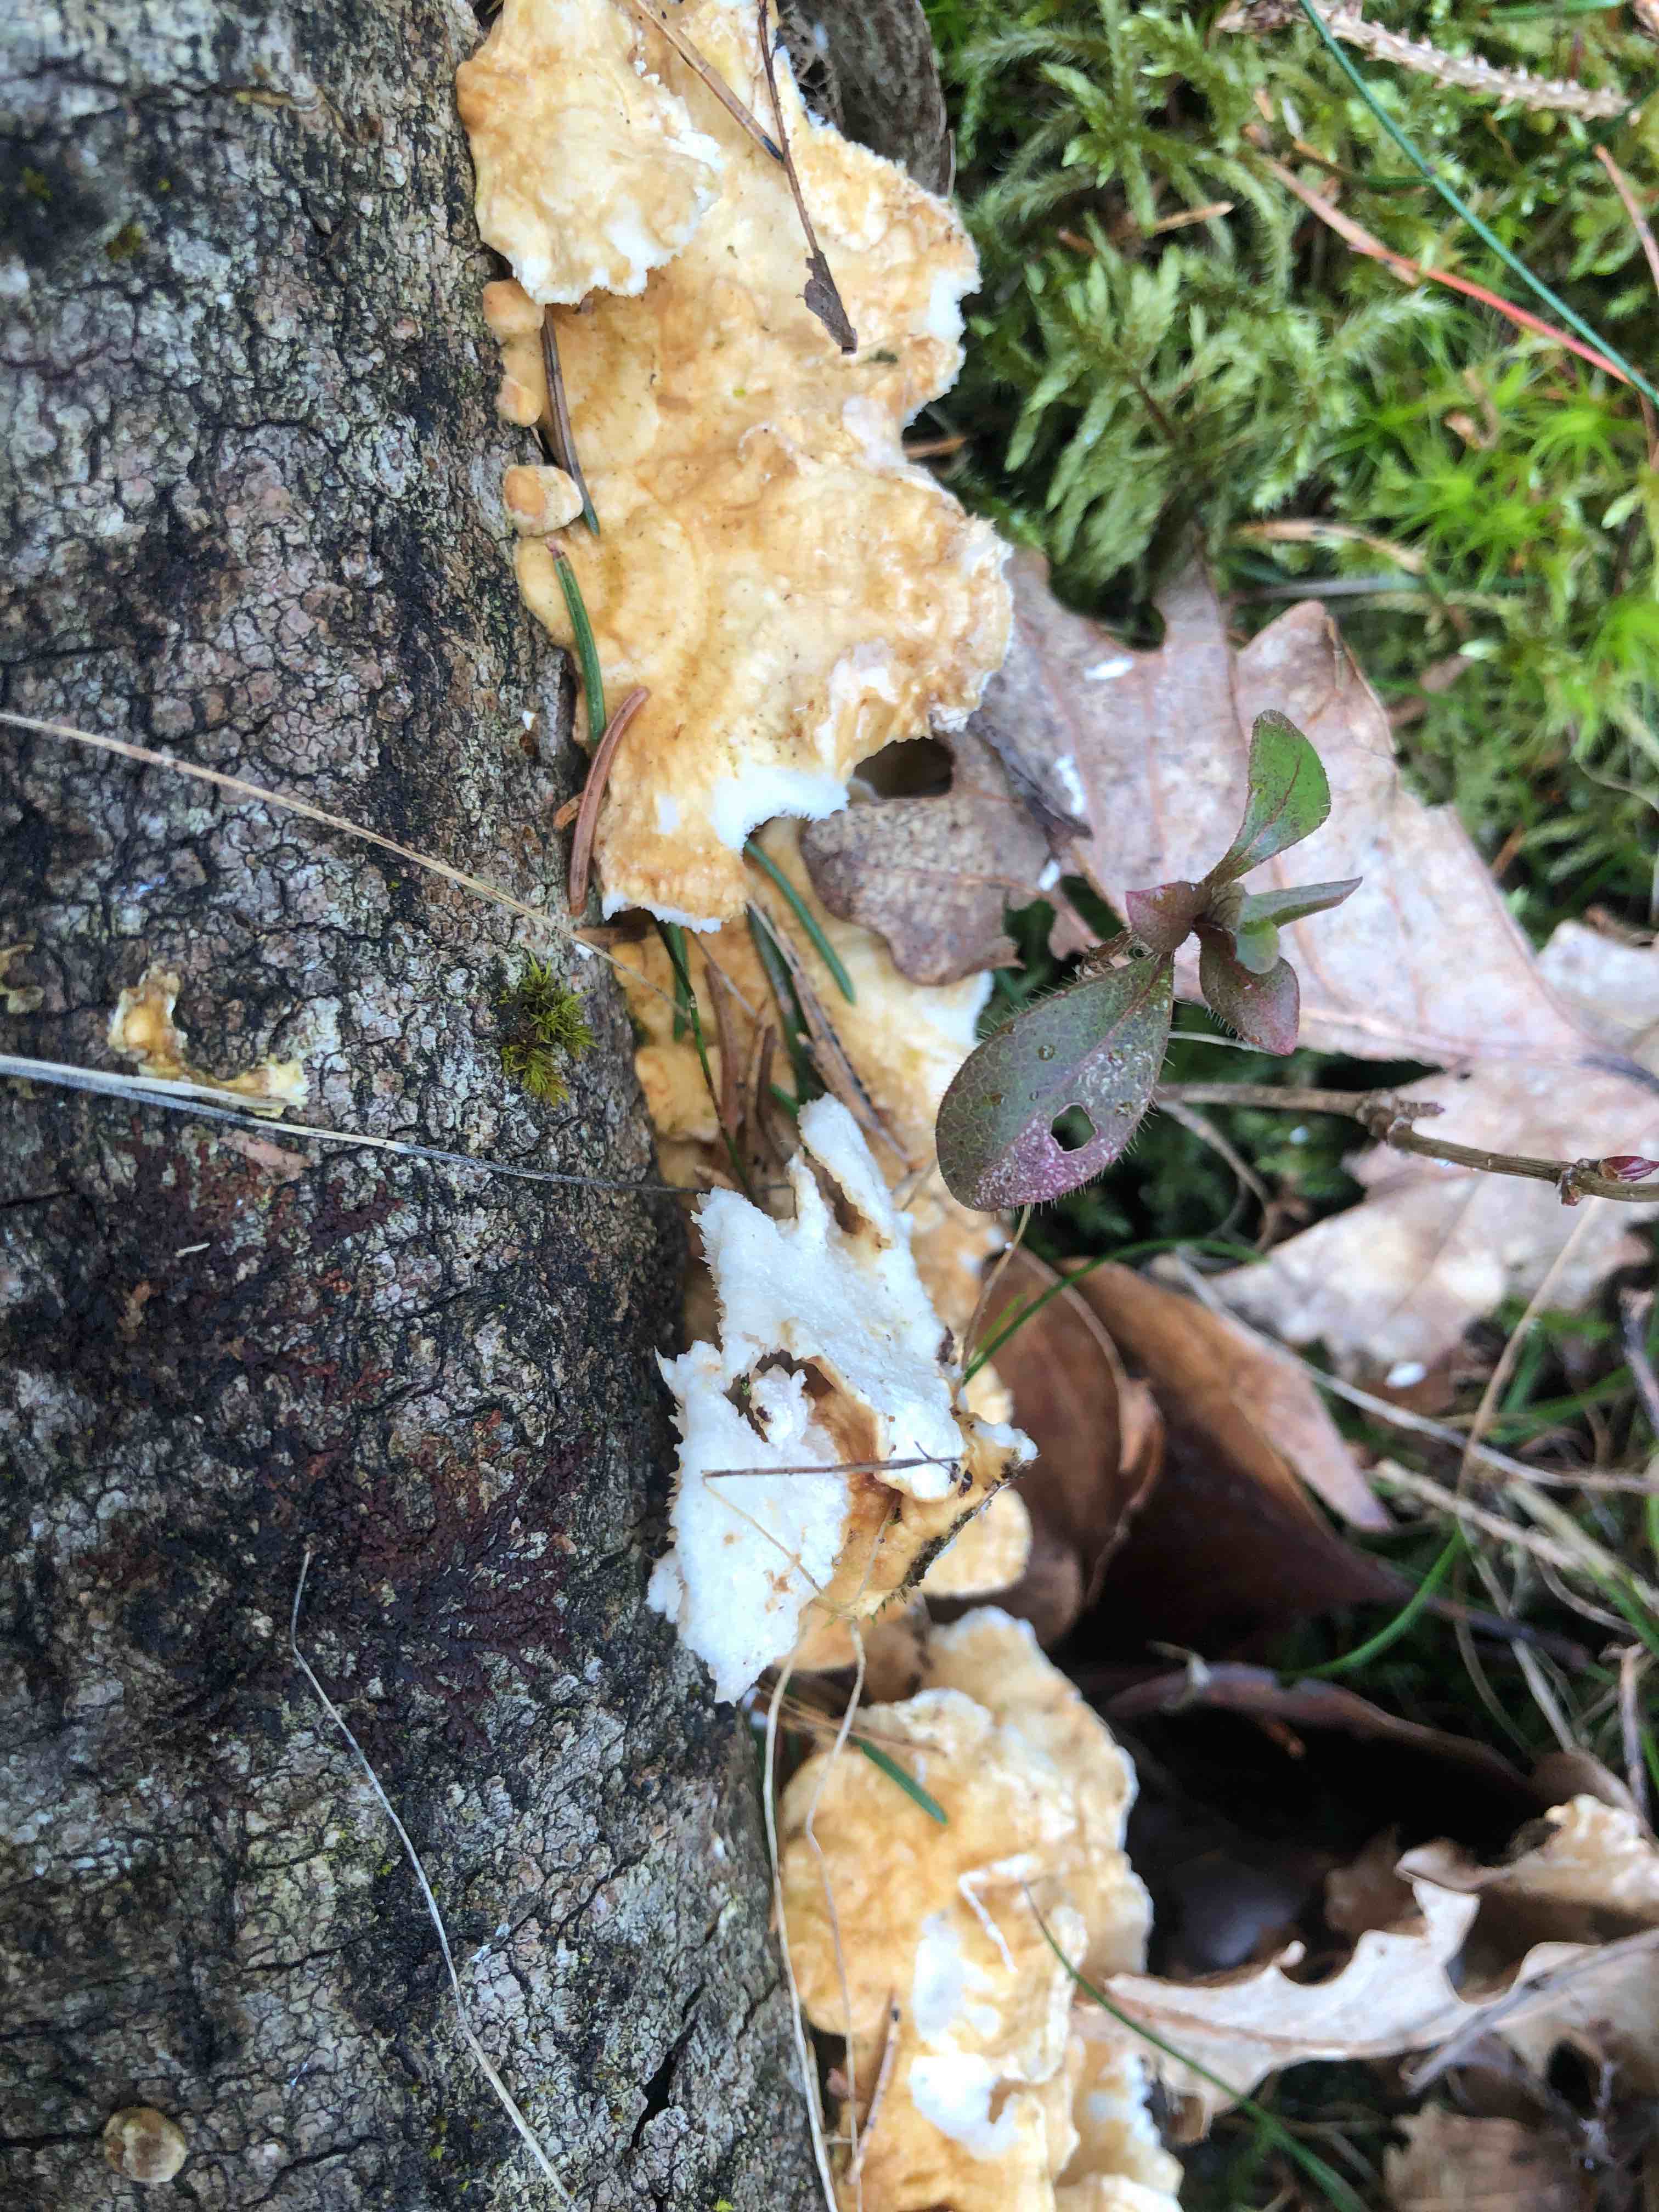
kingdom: Fungi
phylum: Basidiomycota
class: Agaricomycetes
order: Polyporales
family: Polyporaceae
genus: Trametes
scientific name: Trametes ochracea
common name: bæltet læderporesvamp
